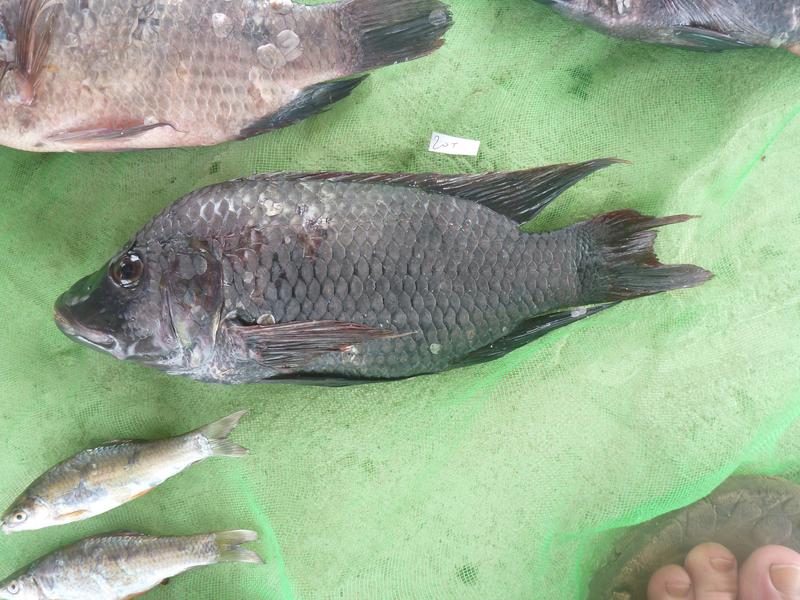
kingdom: Animalia
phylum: Chordata
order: Perciformes
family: Cichlidae
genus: Oreochromis
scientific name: Oreochromis urolepis
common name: Wami tilapia
